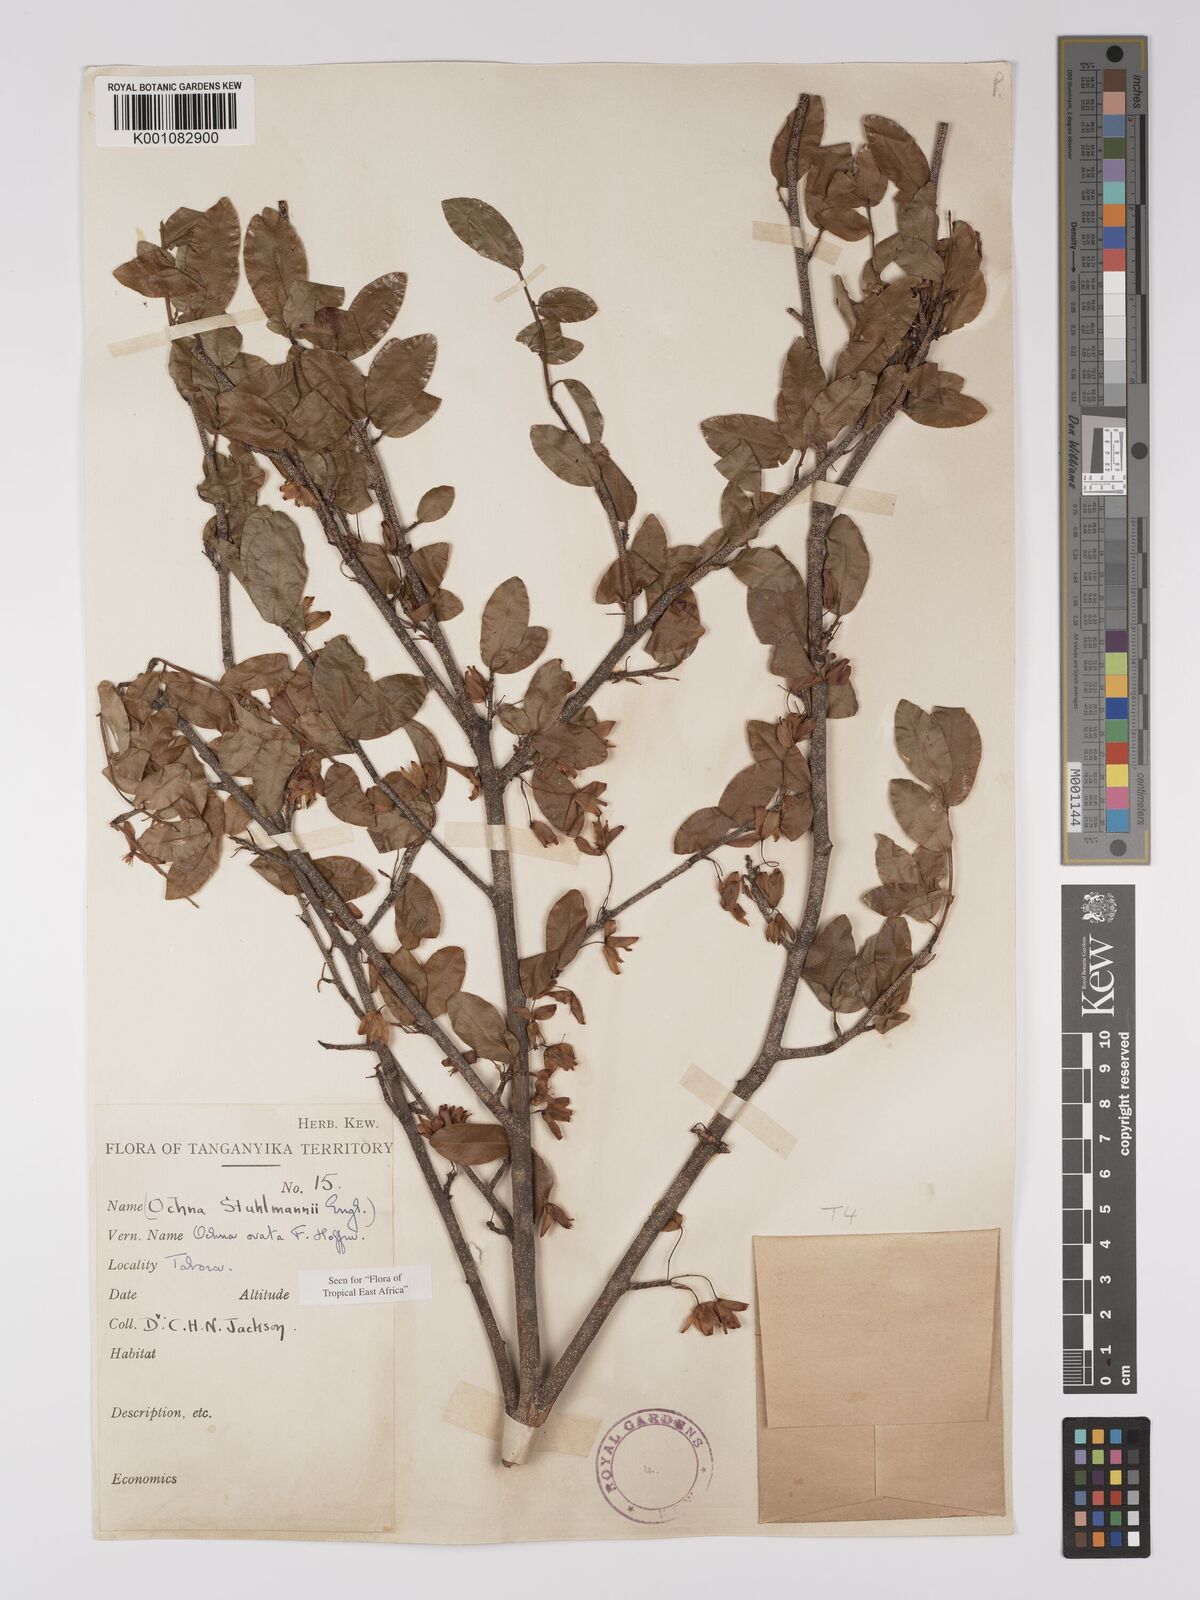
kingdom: Plantae
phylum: Tracheophyta
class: Magnoliopsida
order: Malpighiales
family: Ochnaceae
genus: Ochna
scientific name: Ochna ovata
